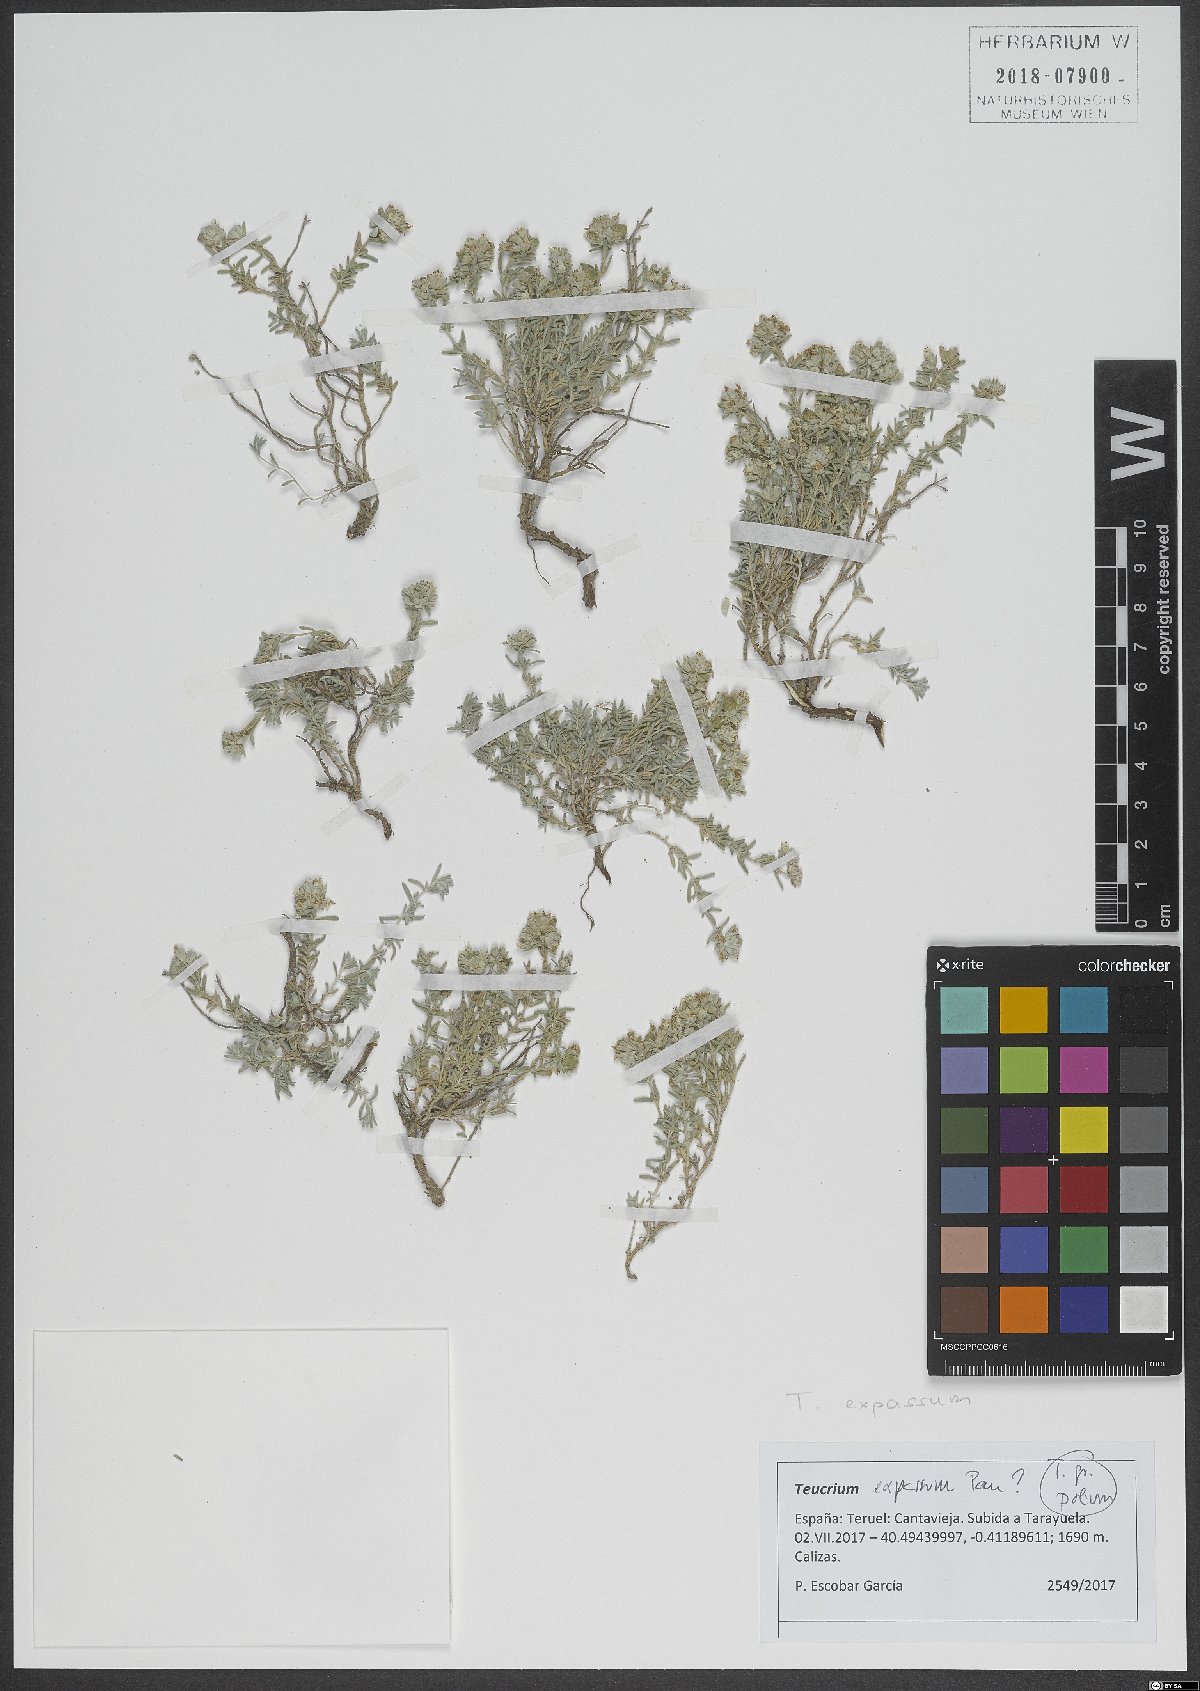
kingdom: Plantae
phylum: Tracheophyta
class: Magnoliopsida
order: Lamiales
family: Lamiaceae
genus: Teucrium
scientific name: Teucrium expassum
